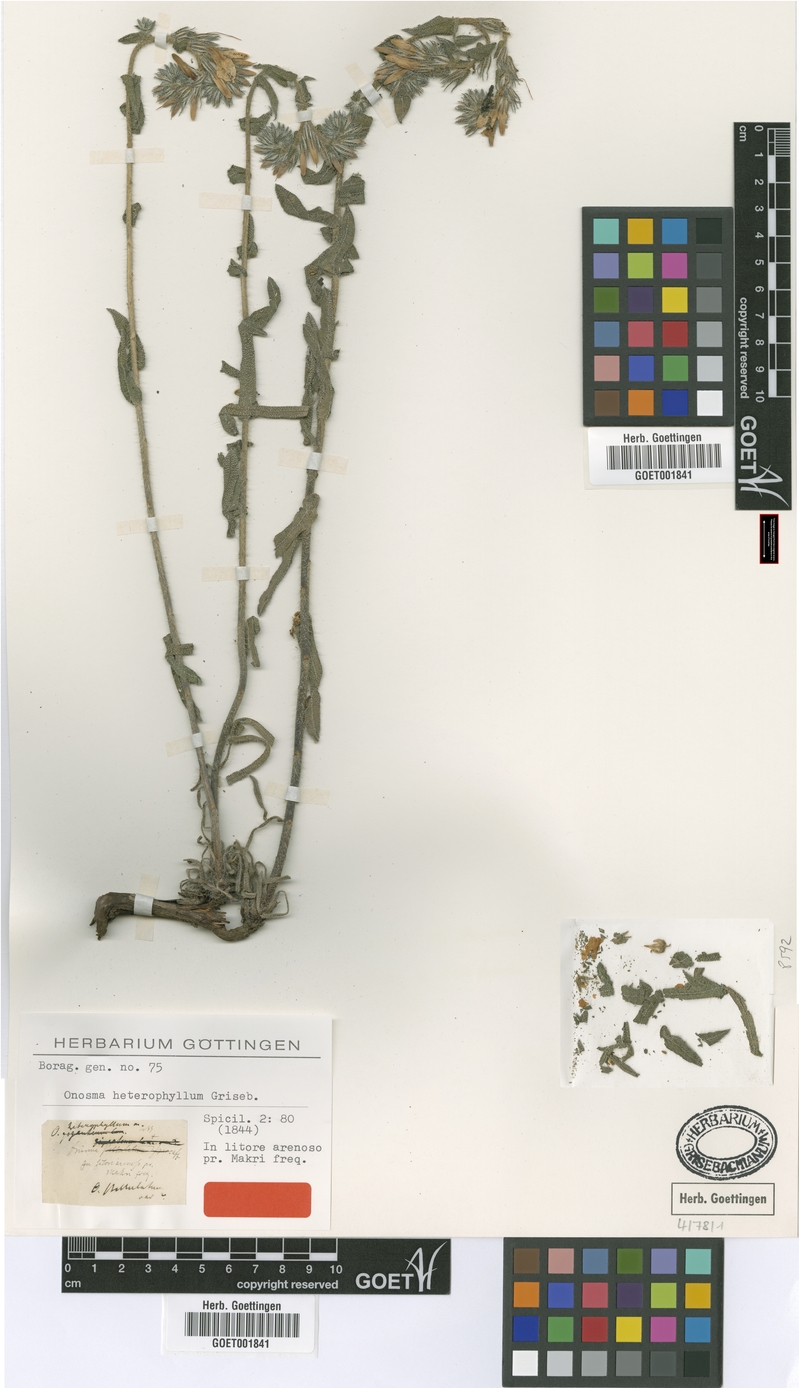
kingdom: Plantae
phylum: Tracheophyta
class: Magnoliopsida
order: Boraginales
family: Boraginaceae
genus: Onosma
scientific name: Onosma heterophylla
